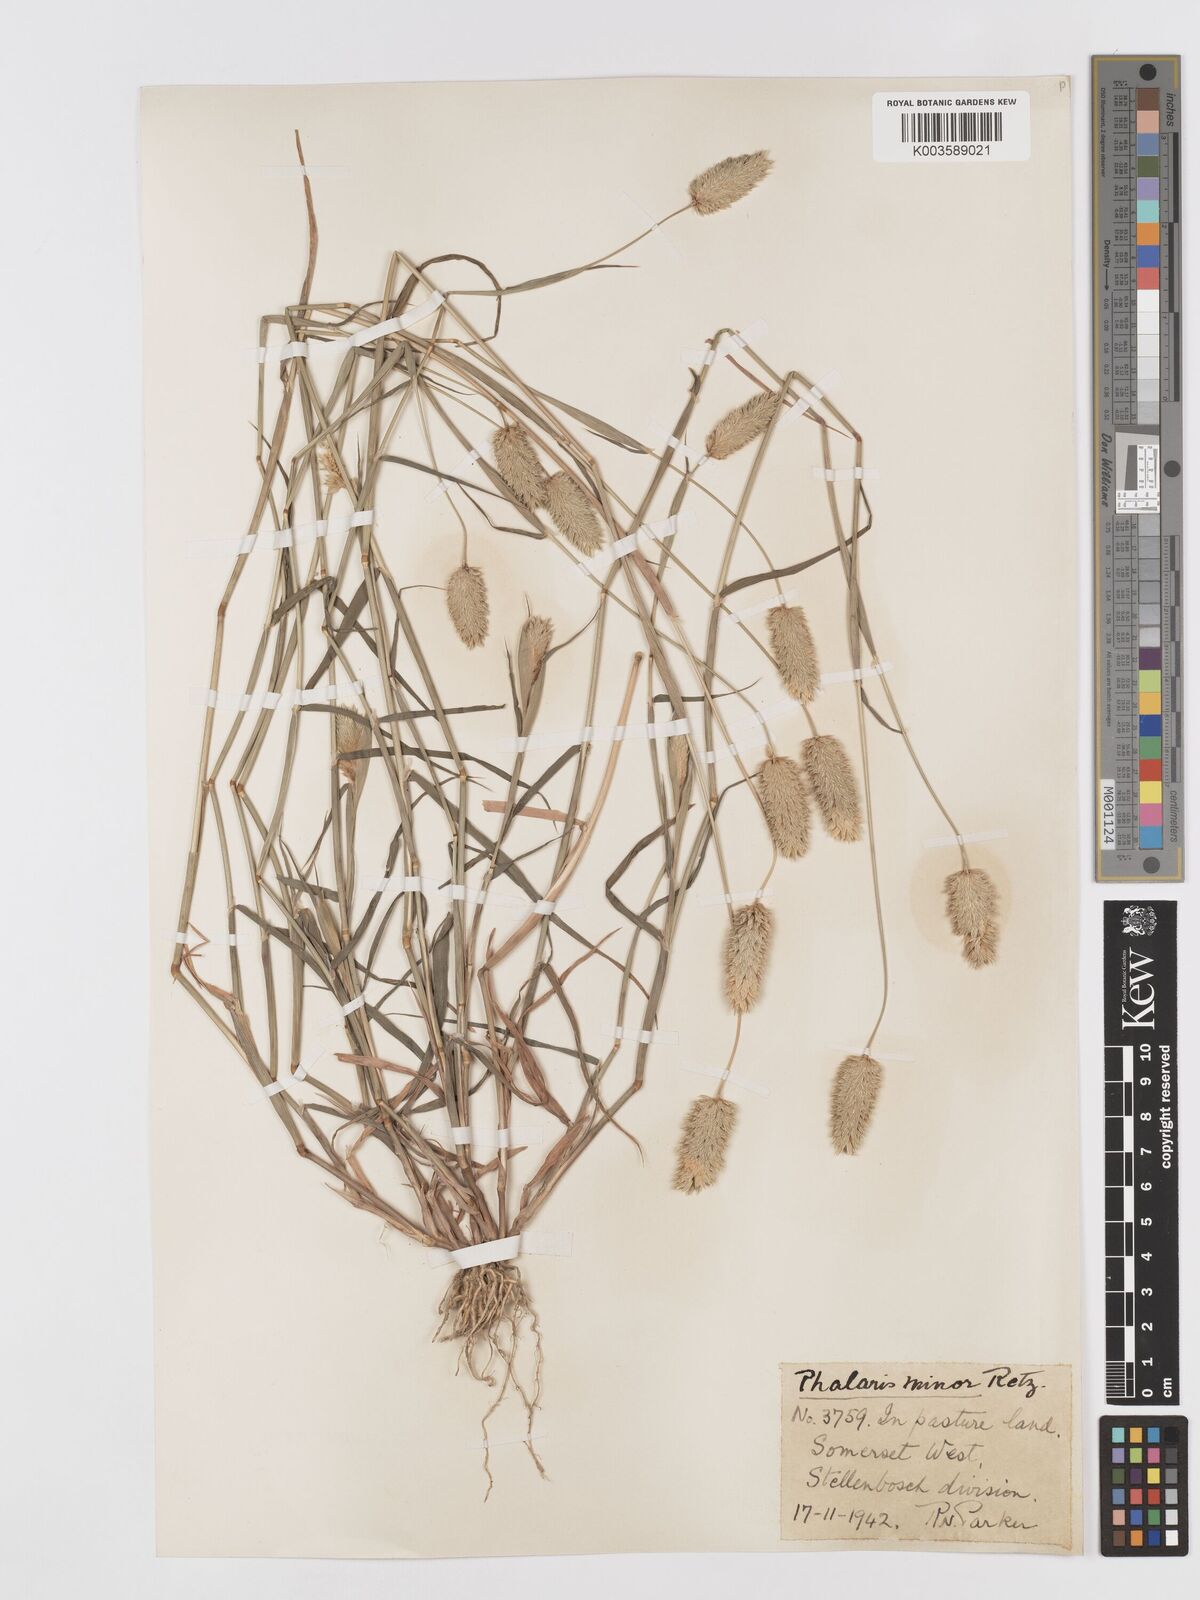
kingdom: Plantae
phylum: Tracheophyta
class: Liliopsida
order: Poales
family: Poaceae
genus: Phalaris
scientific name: Phalaris minor
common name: Littleseed canarygrass
